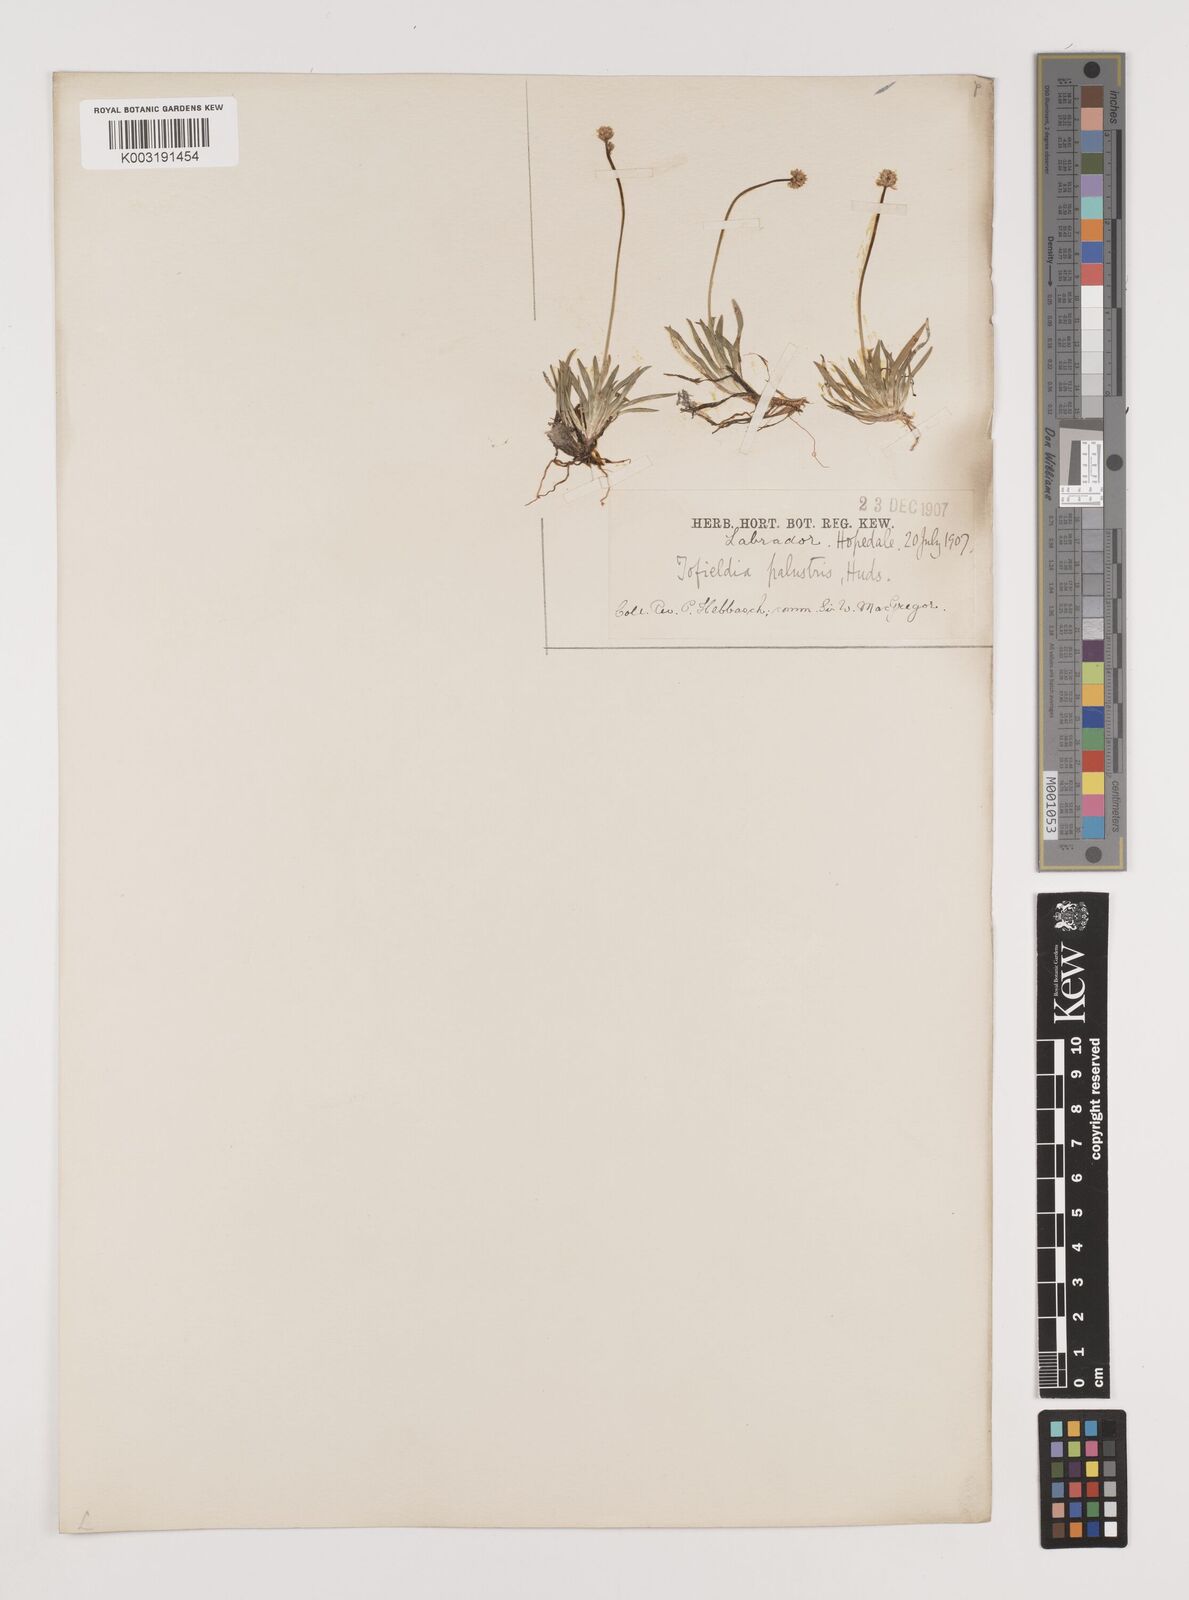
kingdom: Plantae
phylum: Tracheophyta
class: Liliopsida
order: Alismatales
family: Tofieldiaceae
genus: Tofieldia
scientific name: Tofieldia calyculata
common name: German-asphodel
